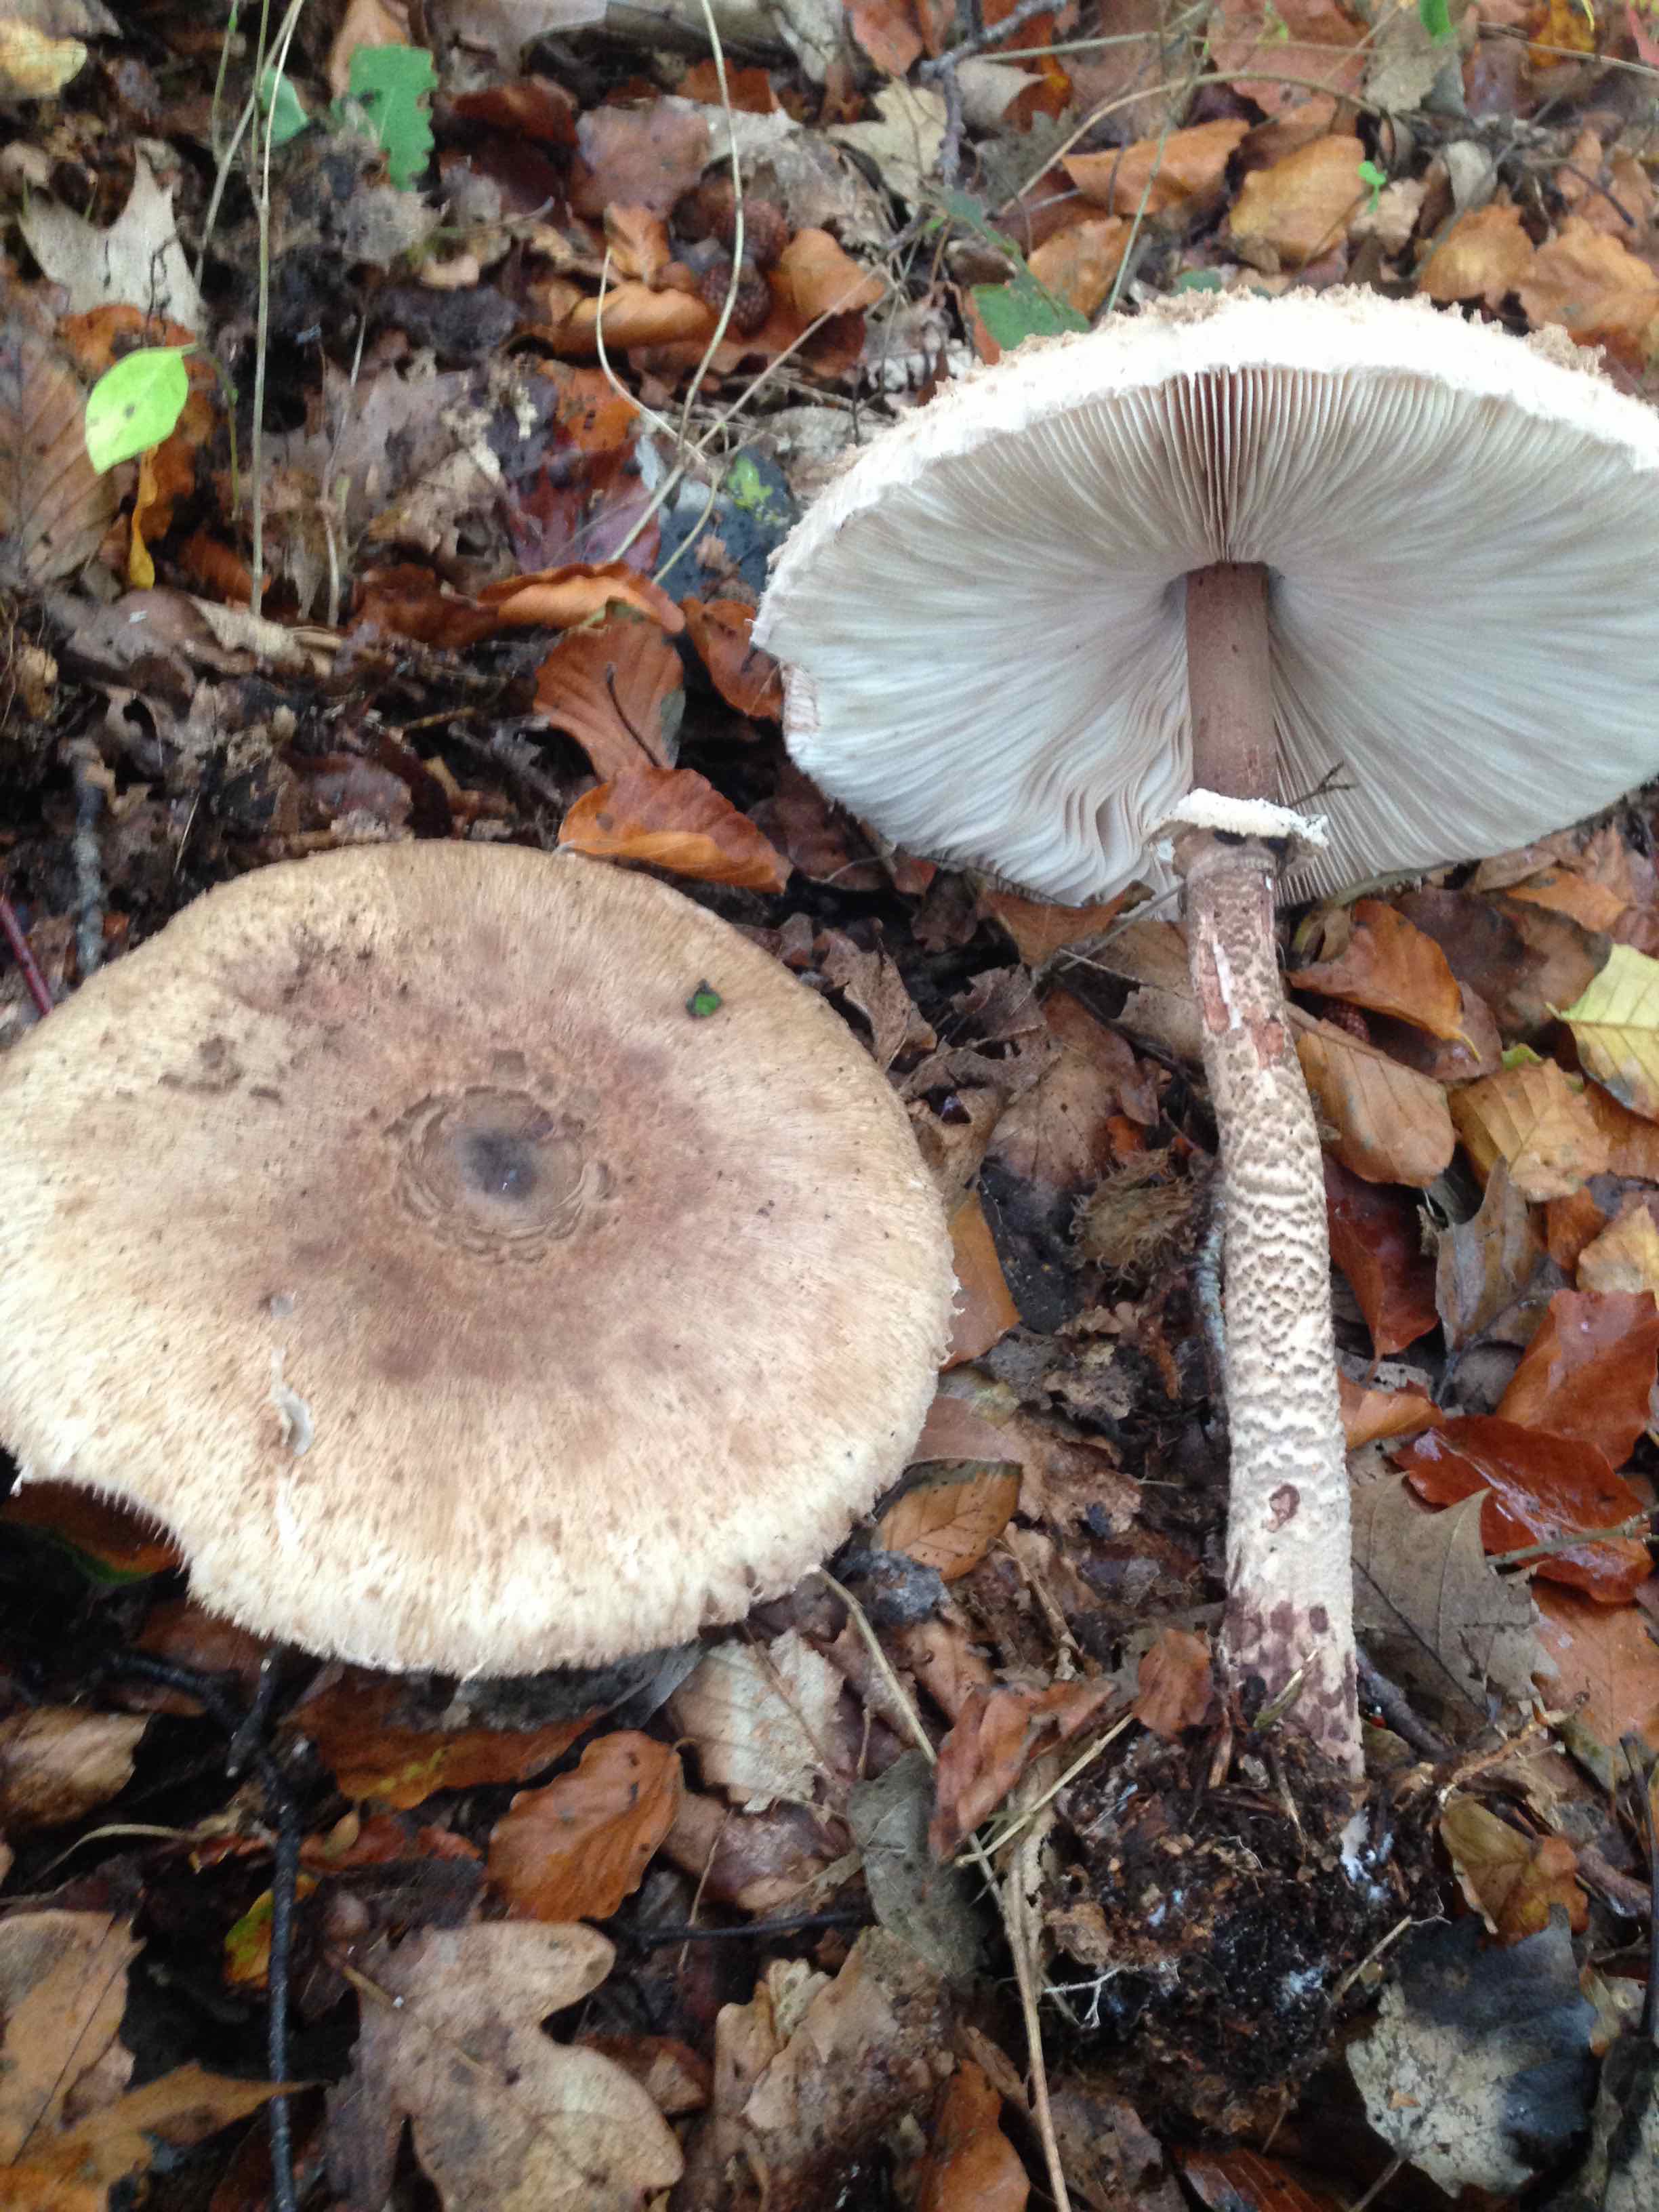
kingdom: Fungi
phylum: Basidiomycota
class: Agaricomycetes
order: Agaricales
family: Agaricaceae
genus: Macrolepiota
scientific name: Macrolepiota procera
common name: stor kæmpeparasolhat
